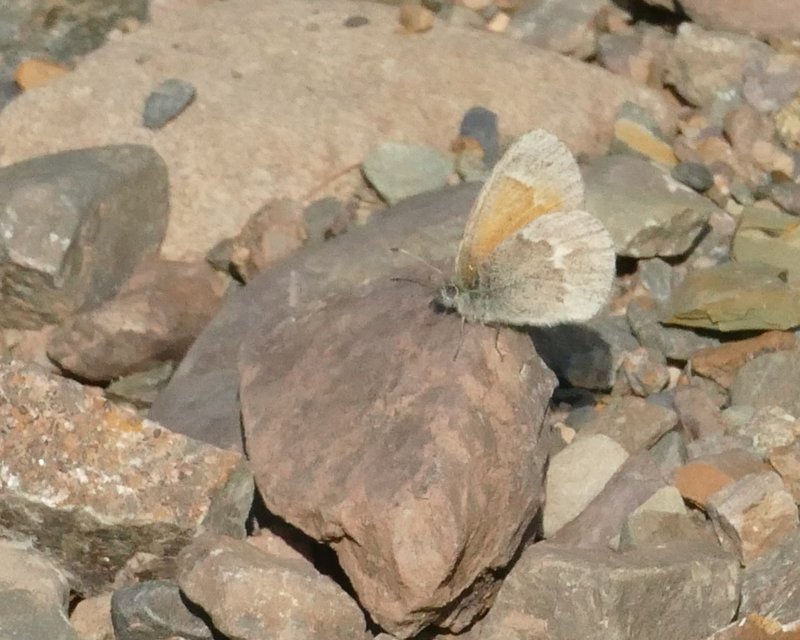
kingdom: Animalia
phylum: Arthropoda
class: Insecta
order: Lepidoptera
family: Nymphalidae
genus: Coenonympha
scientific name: Coenonympha tullia
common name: Large Heath
